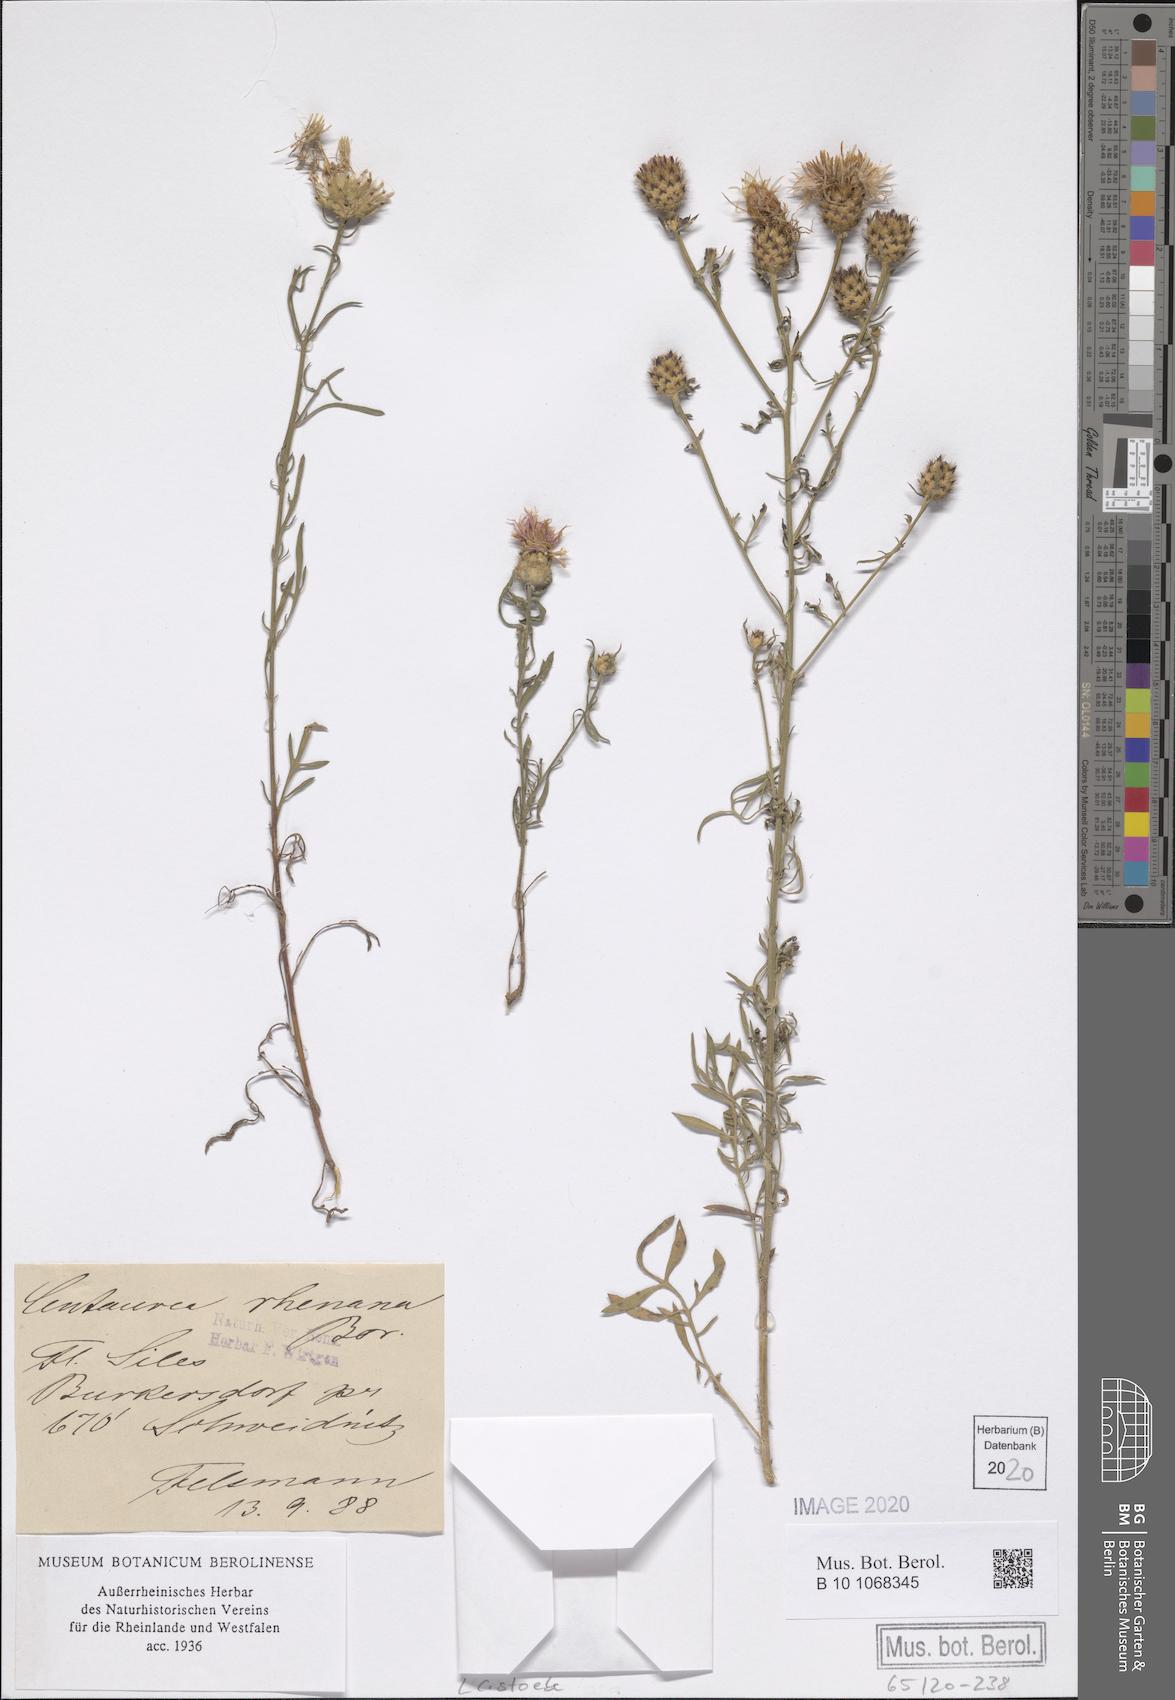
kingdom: Plantae
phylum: Tracheophyta
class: Magnoliopsida
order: Asterales
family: Asteraceae
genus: Centaurea
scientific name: Centaurea stoebe
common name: Spotted knapweed
